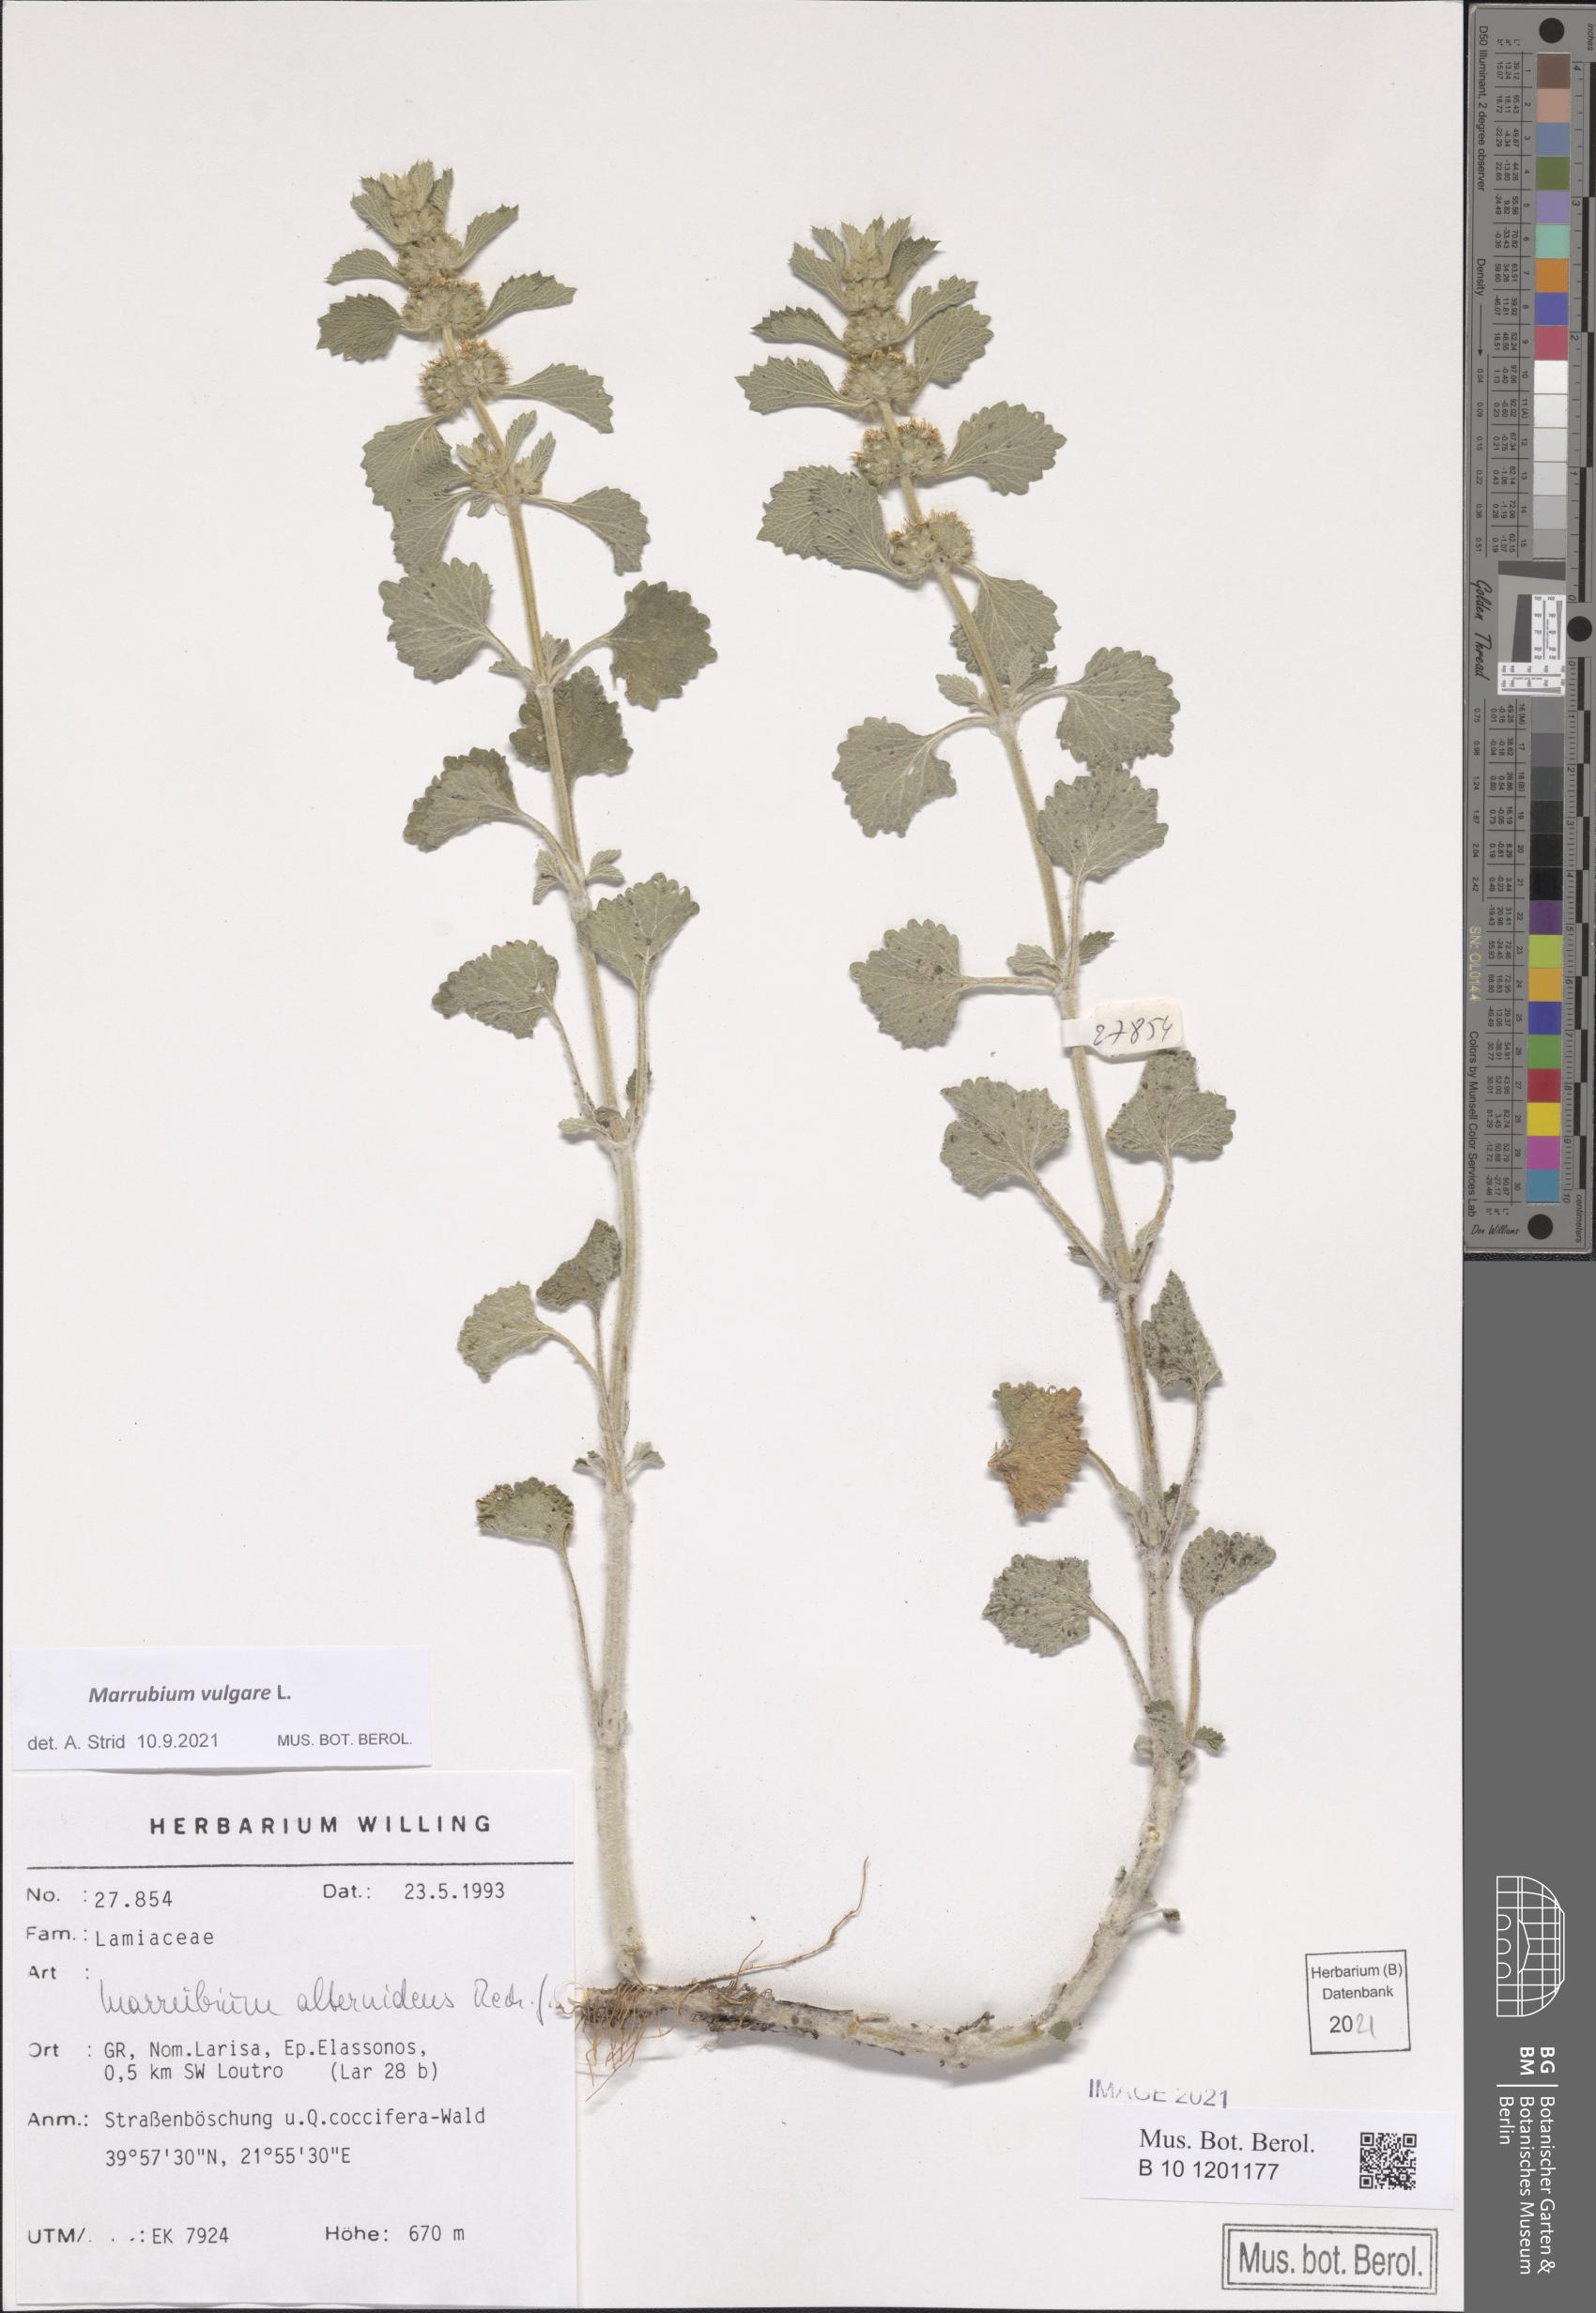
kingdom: Plantae
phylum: Tracheophyta
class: Magnoliopsida
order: Lamiales
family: Lamiaceae
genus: Marrubium
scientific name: Marrubium anisodon
